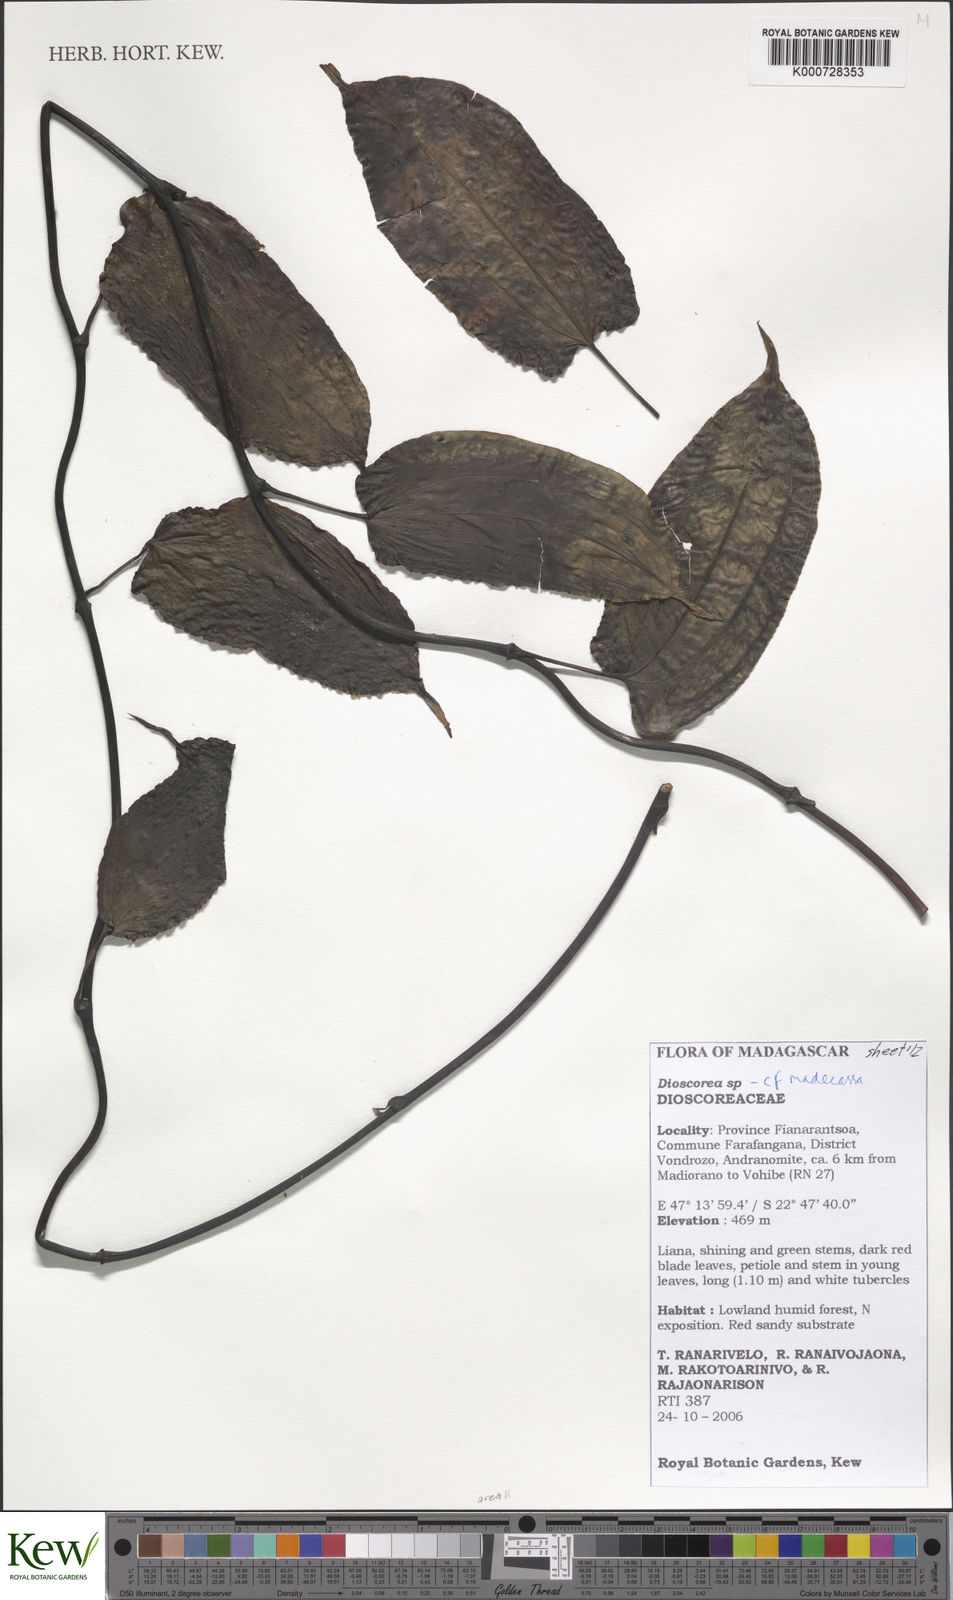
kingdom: Plantae
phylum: Tracheophyta
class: Liliopsida
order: Dioscoreales
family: Dioscoreaceae
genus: Dioscorea
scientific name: Dioscorea madecassa
